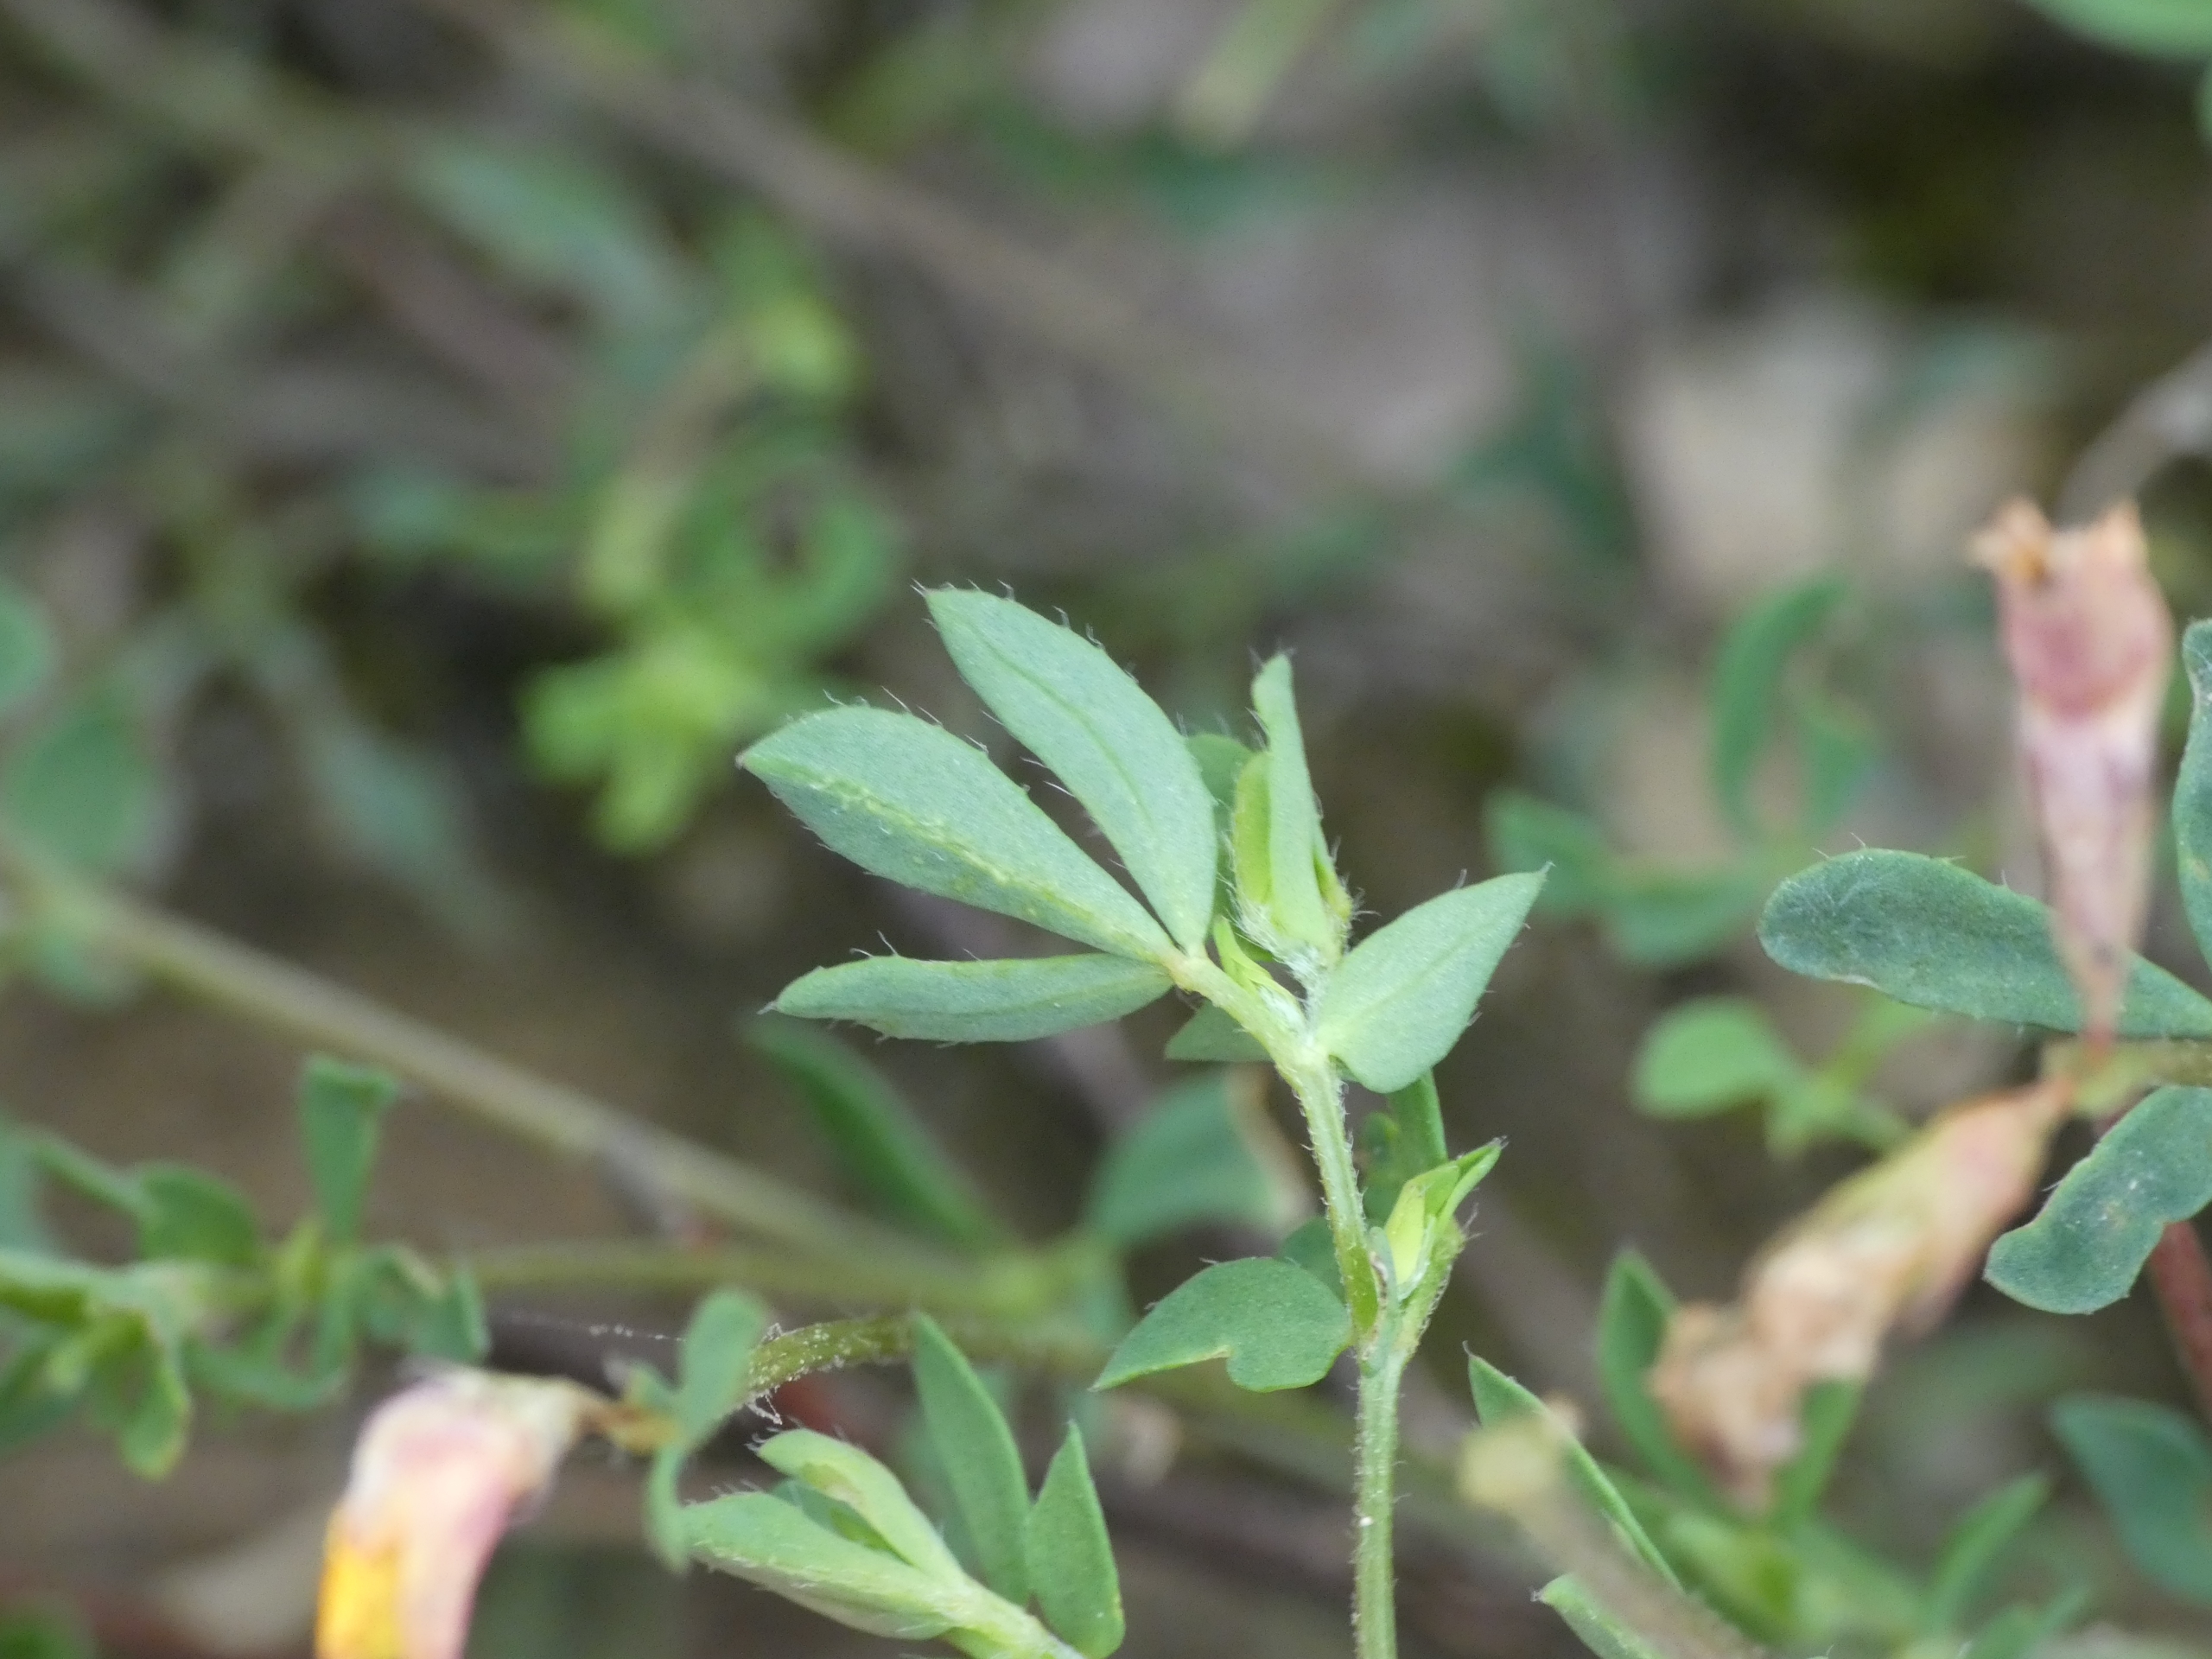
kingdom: Plantae
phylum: Tracheophyta
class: Magnoliopsida
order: Fabales
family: Fabaceae
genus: Lotus
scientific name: Lotus corniculatus
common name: Almindelig kællingetand
